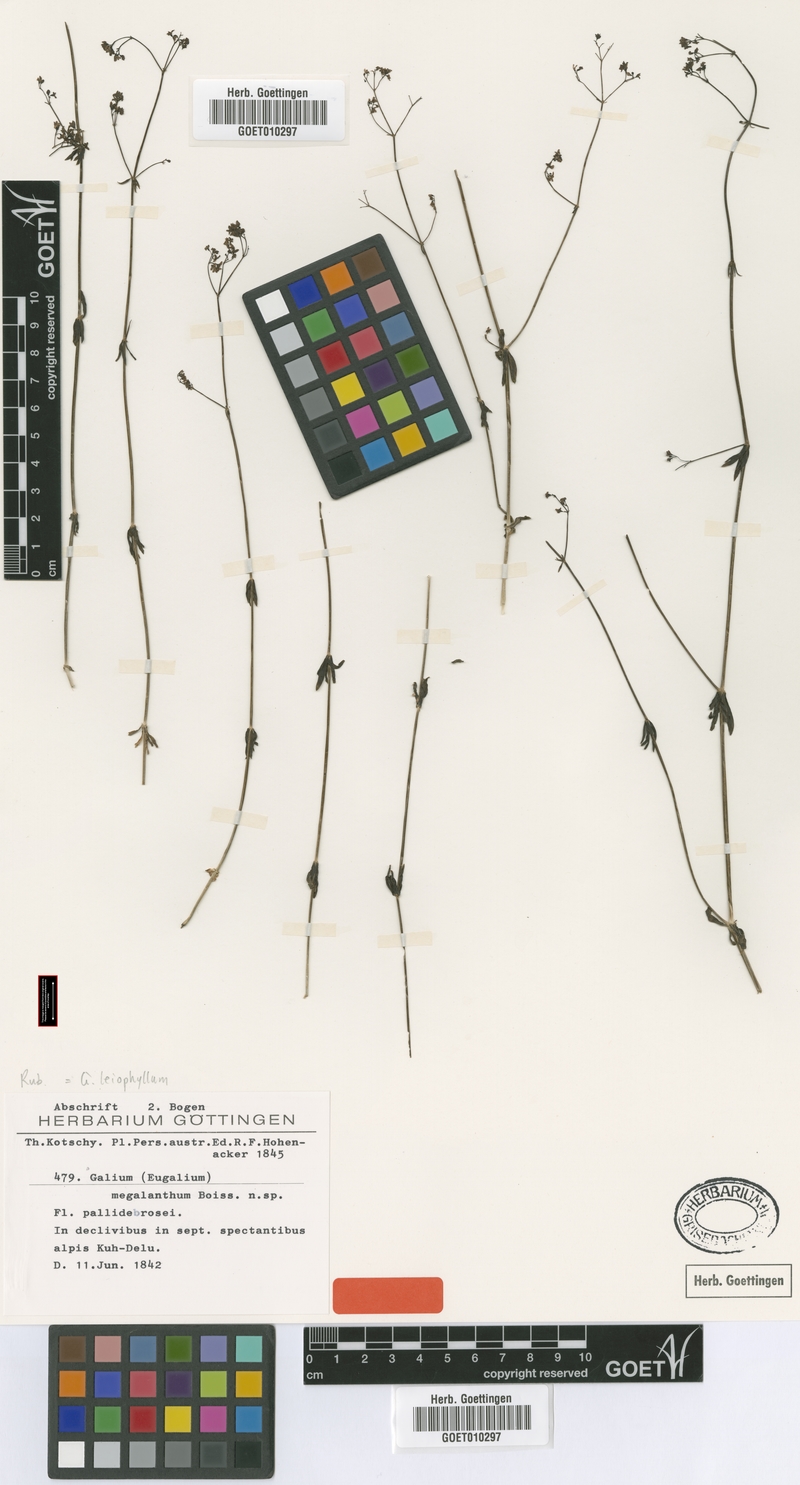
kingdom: Plantae
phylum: Tracheophyta
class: Magnoliopsida
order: Gentianales
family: Rubiaceae
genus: Galium
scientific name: Galium subvelutinum
